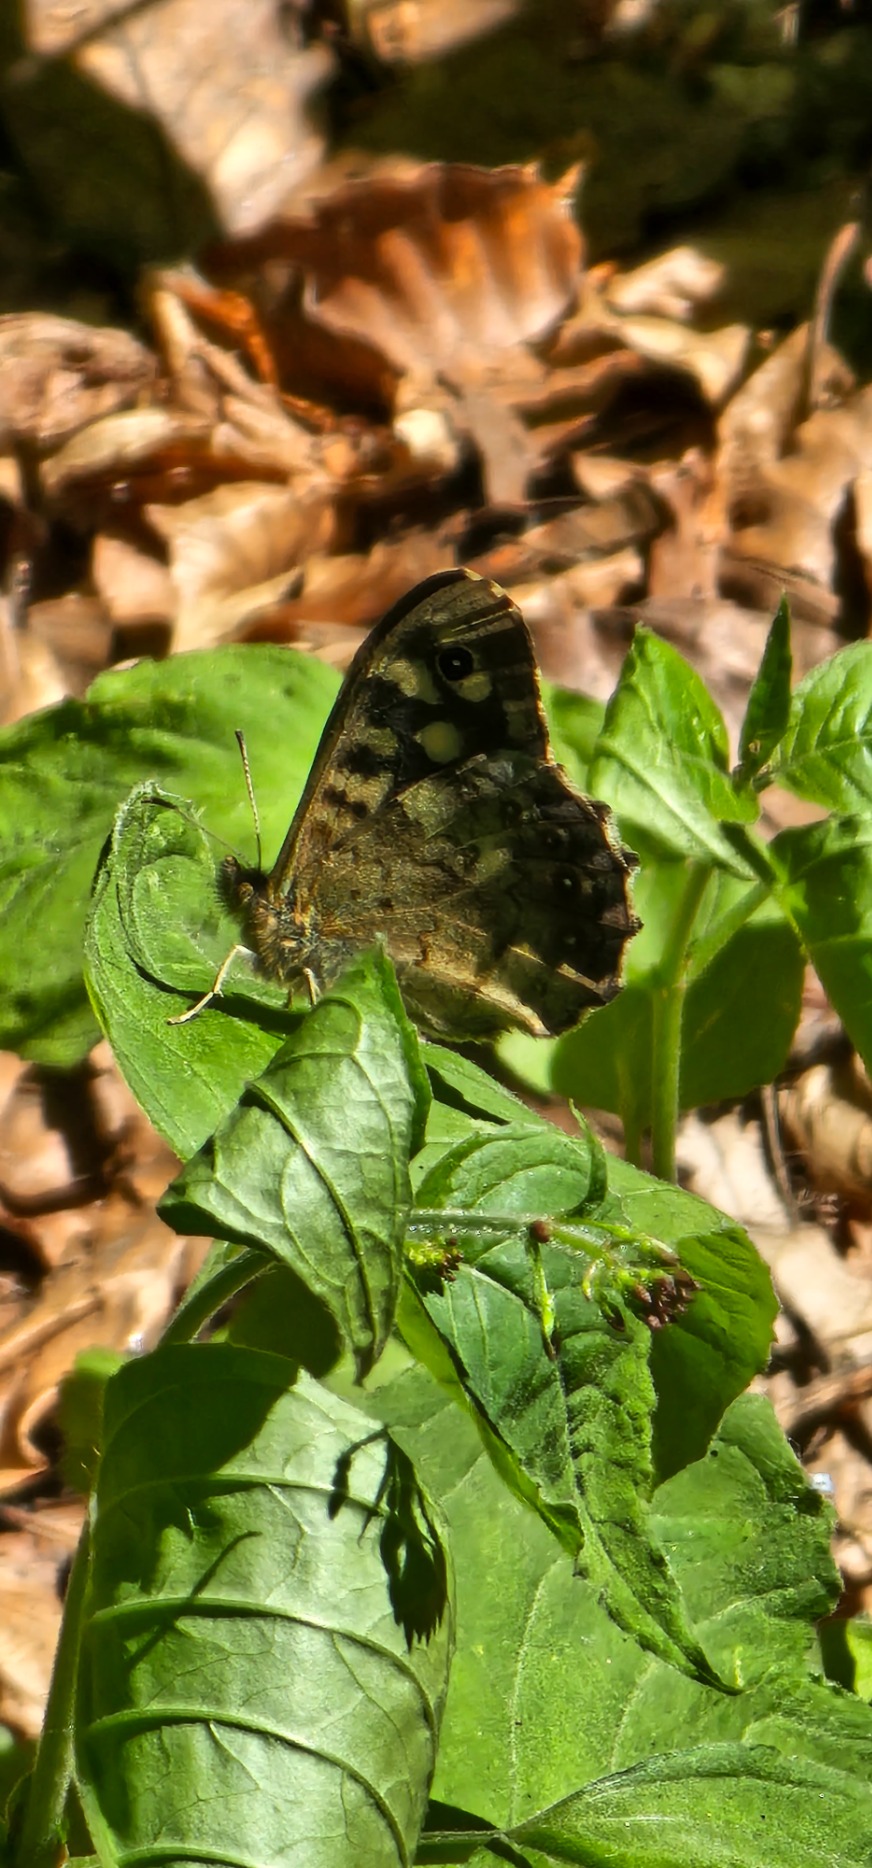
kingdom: Animalia
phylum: Arthropoda
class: Insecta
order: Lepidoptera
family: Nymphalidae
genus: Pararge
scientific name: Pararge aegeria
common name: Skovrandøje
